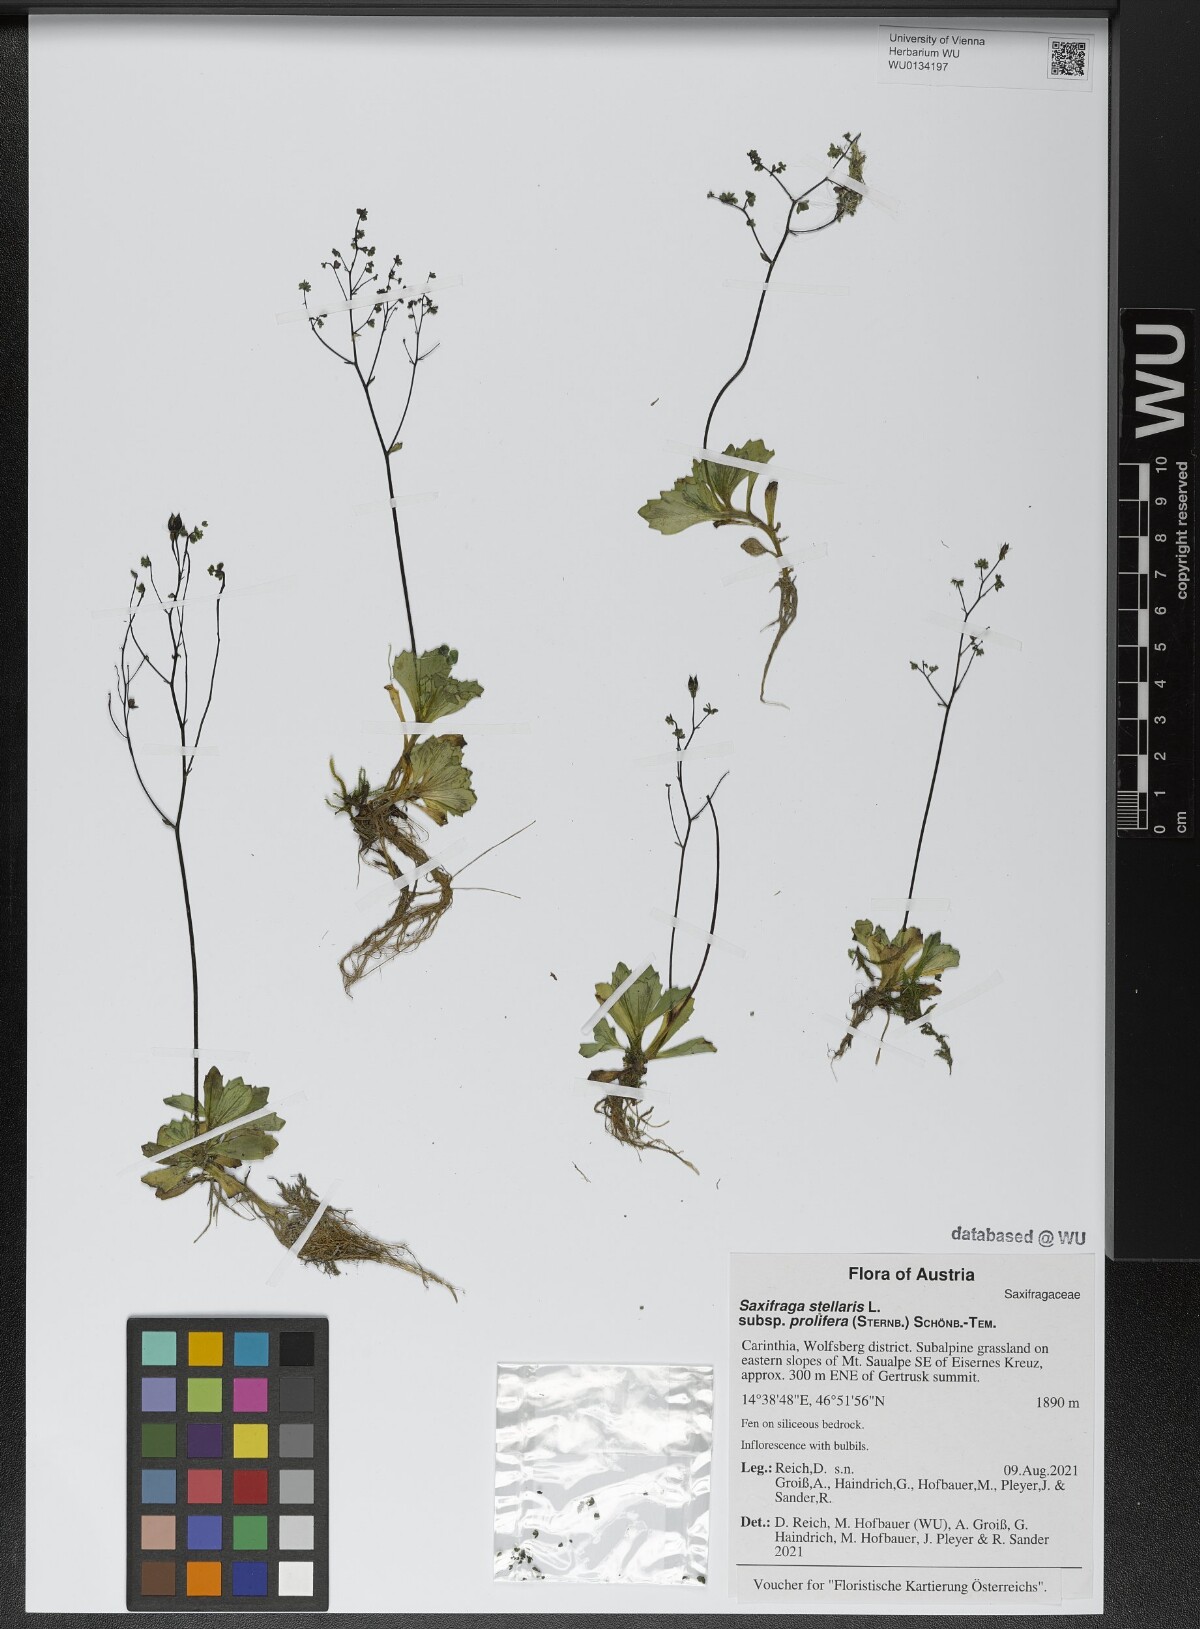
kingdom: Plantae
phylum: Tracheophyta
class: Magnoliopsida
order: Saxifragales
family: Saxifragaceae
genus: Micranthes
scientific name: Micranthes stellaris
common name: Starry saxifrage
